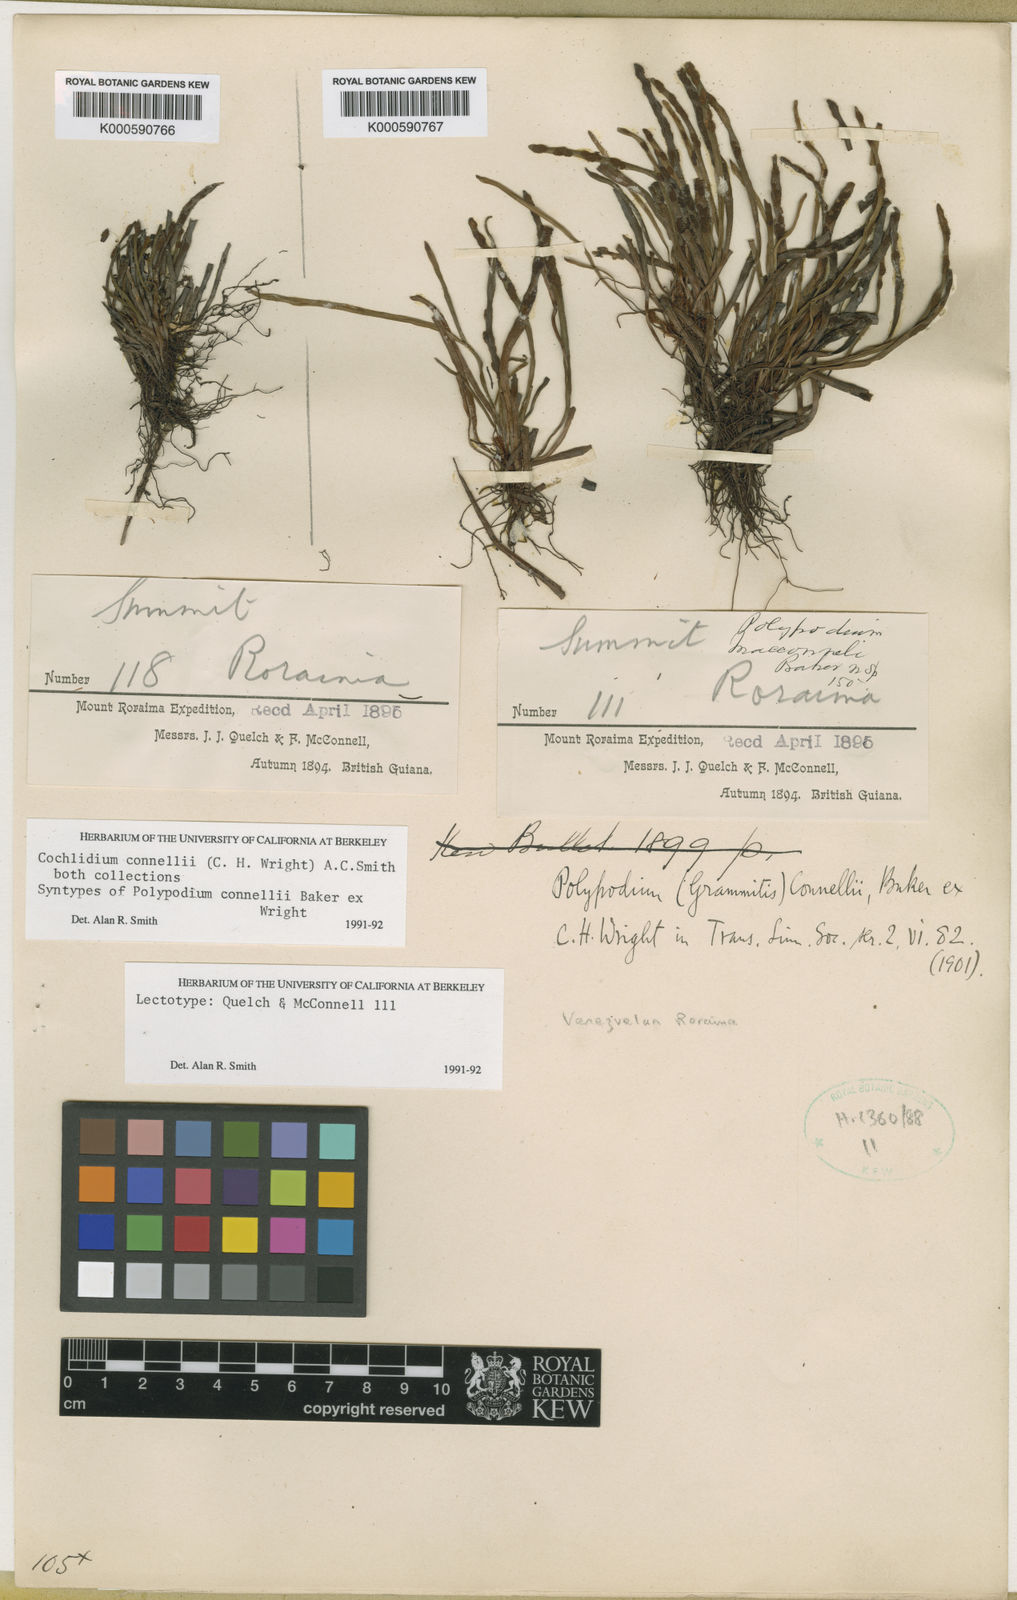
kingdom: Plantae
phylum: Tracheophyta
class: Polypodiopsida
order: Polypodiales
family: Polypodiaceae
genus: Cochlidium
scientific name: Cochlidium connellii
